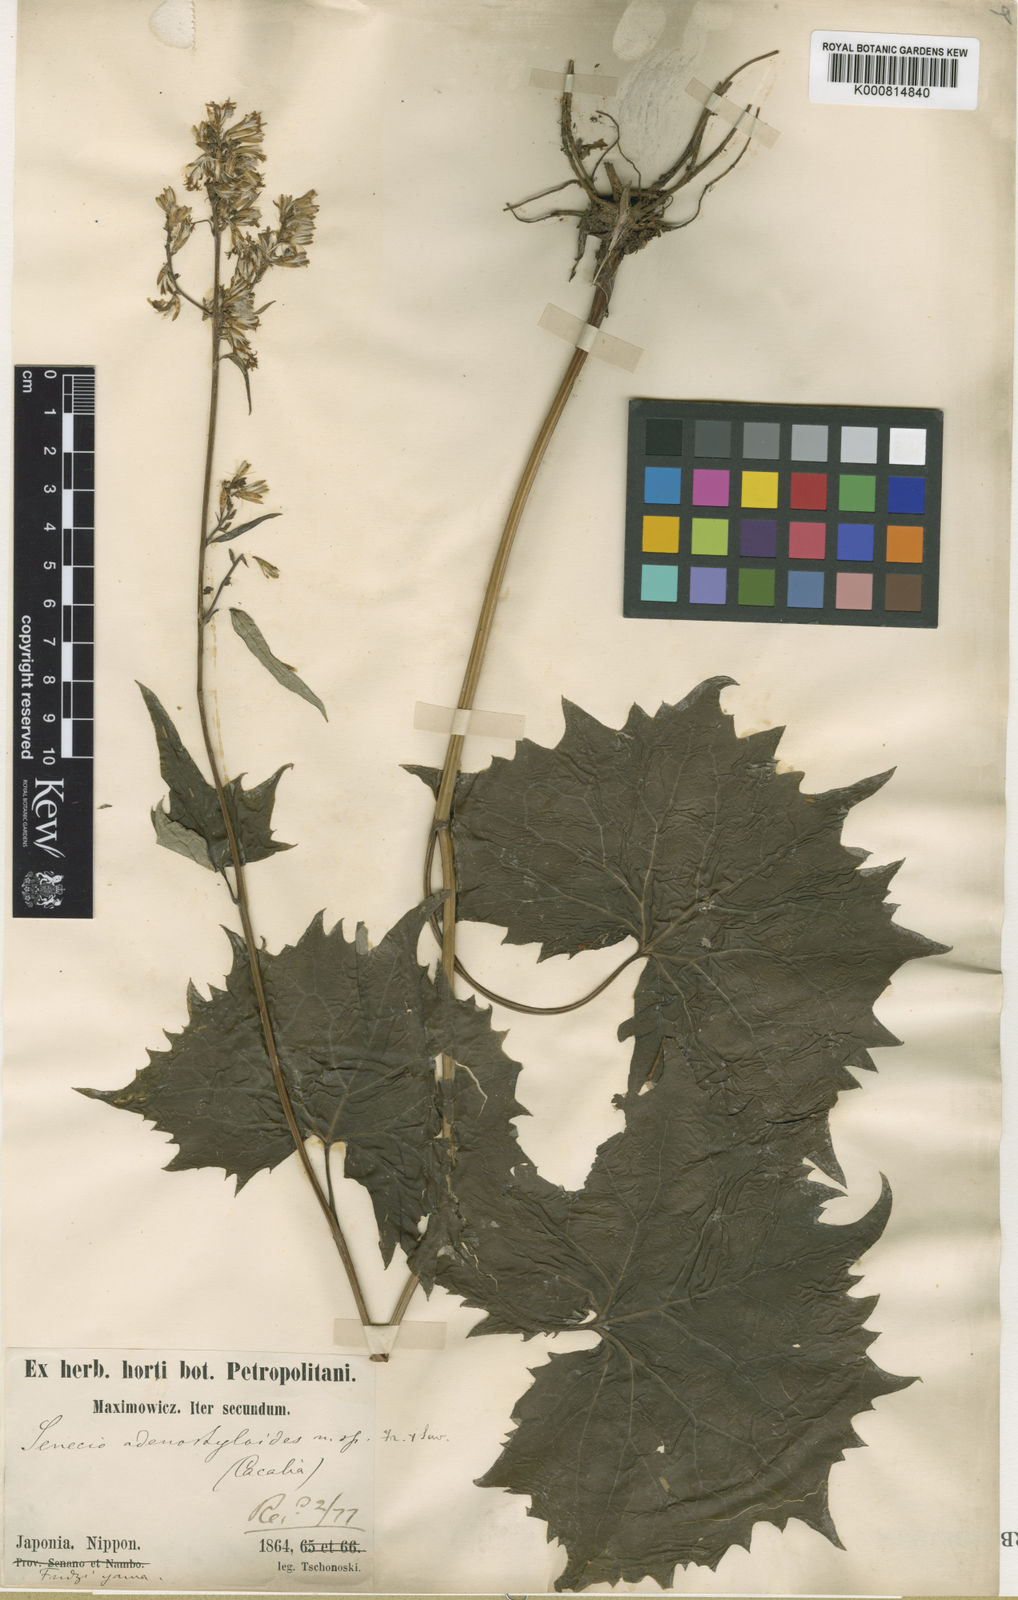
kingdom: Plantae
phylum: Tracheophyta
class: Magnoliopsida
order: Asterales
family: Asteraceae
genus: Parasenecio
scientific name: Parasenecio adenostyloides
